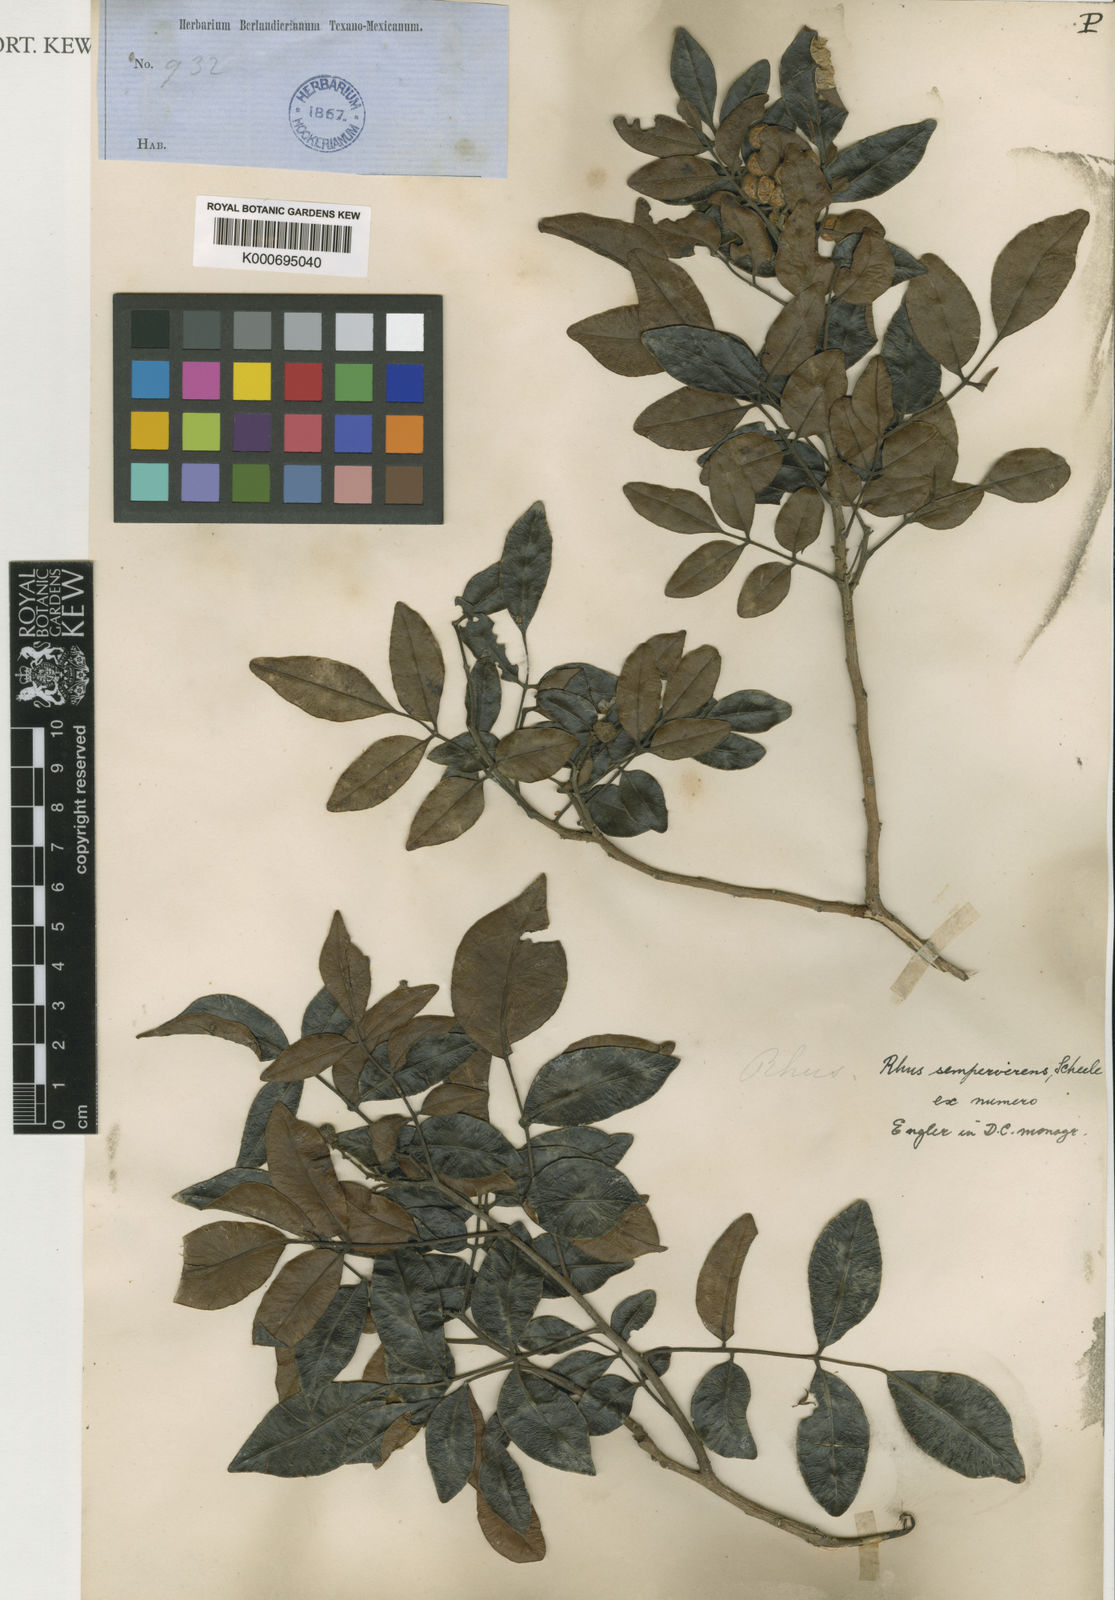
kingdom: Plantae
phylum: Tracheophyta
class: Magnoliopsida
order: Sapindales
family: Anacardiaceae
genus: Rhus
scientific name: Rhus virens
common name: Evergreen sumac
